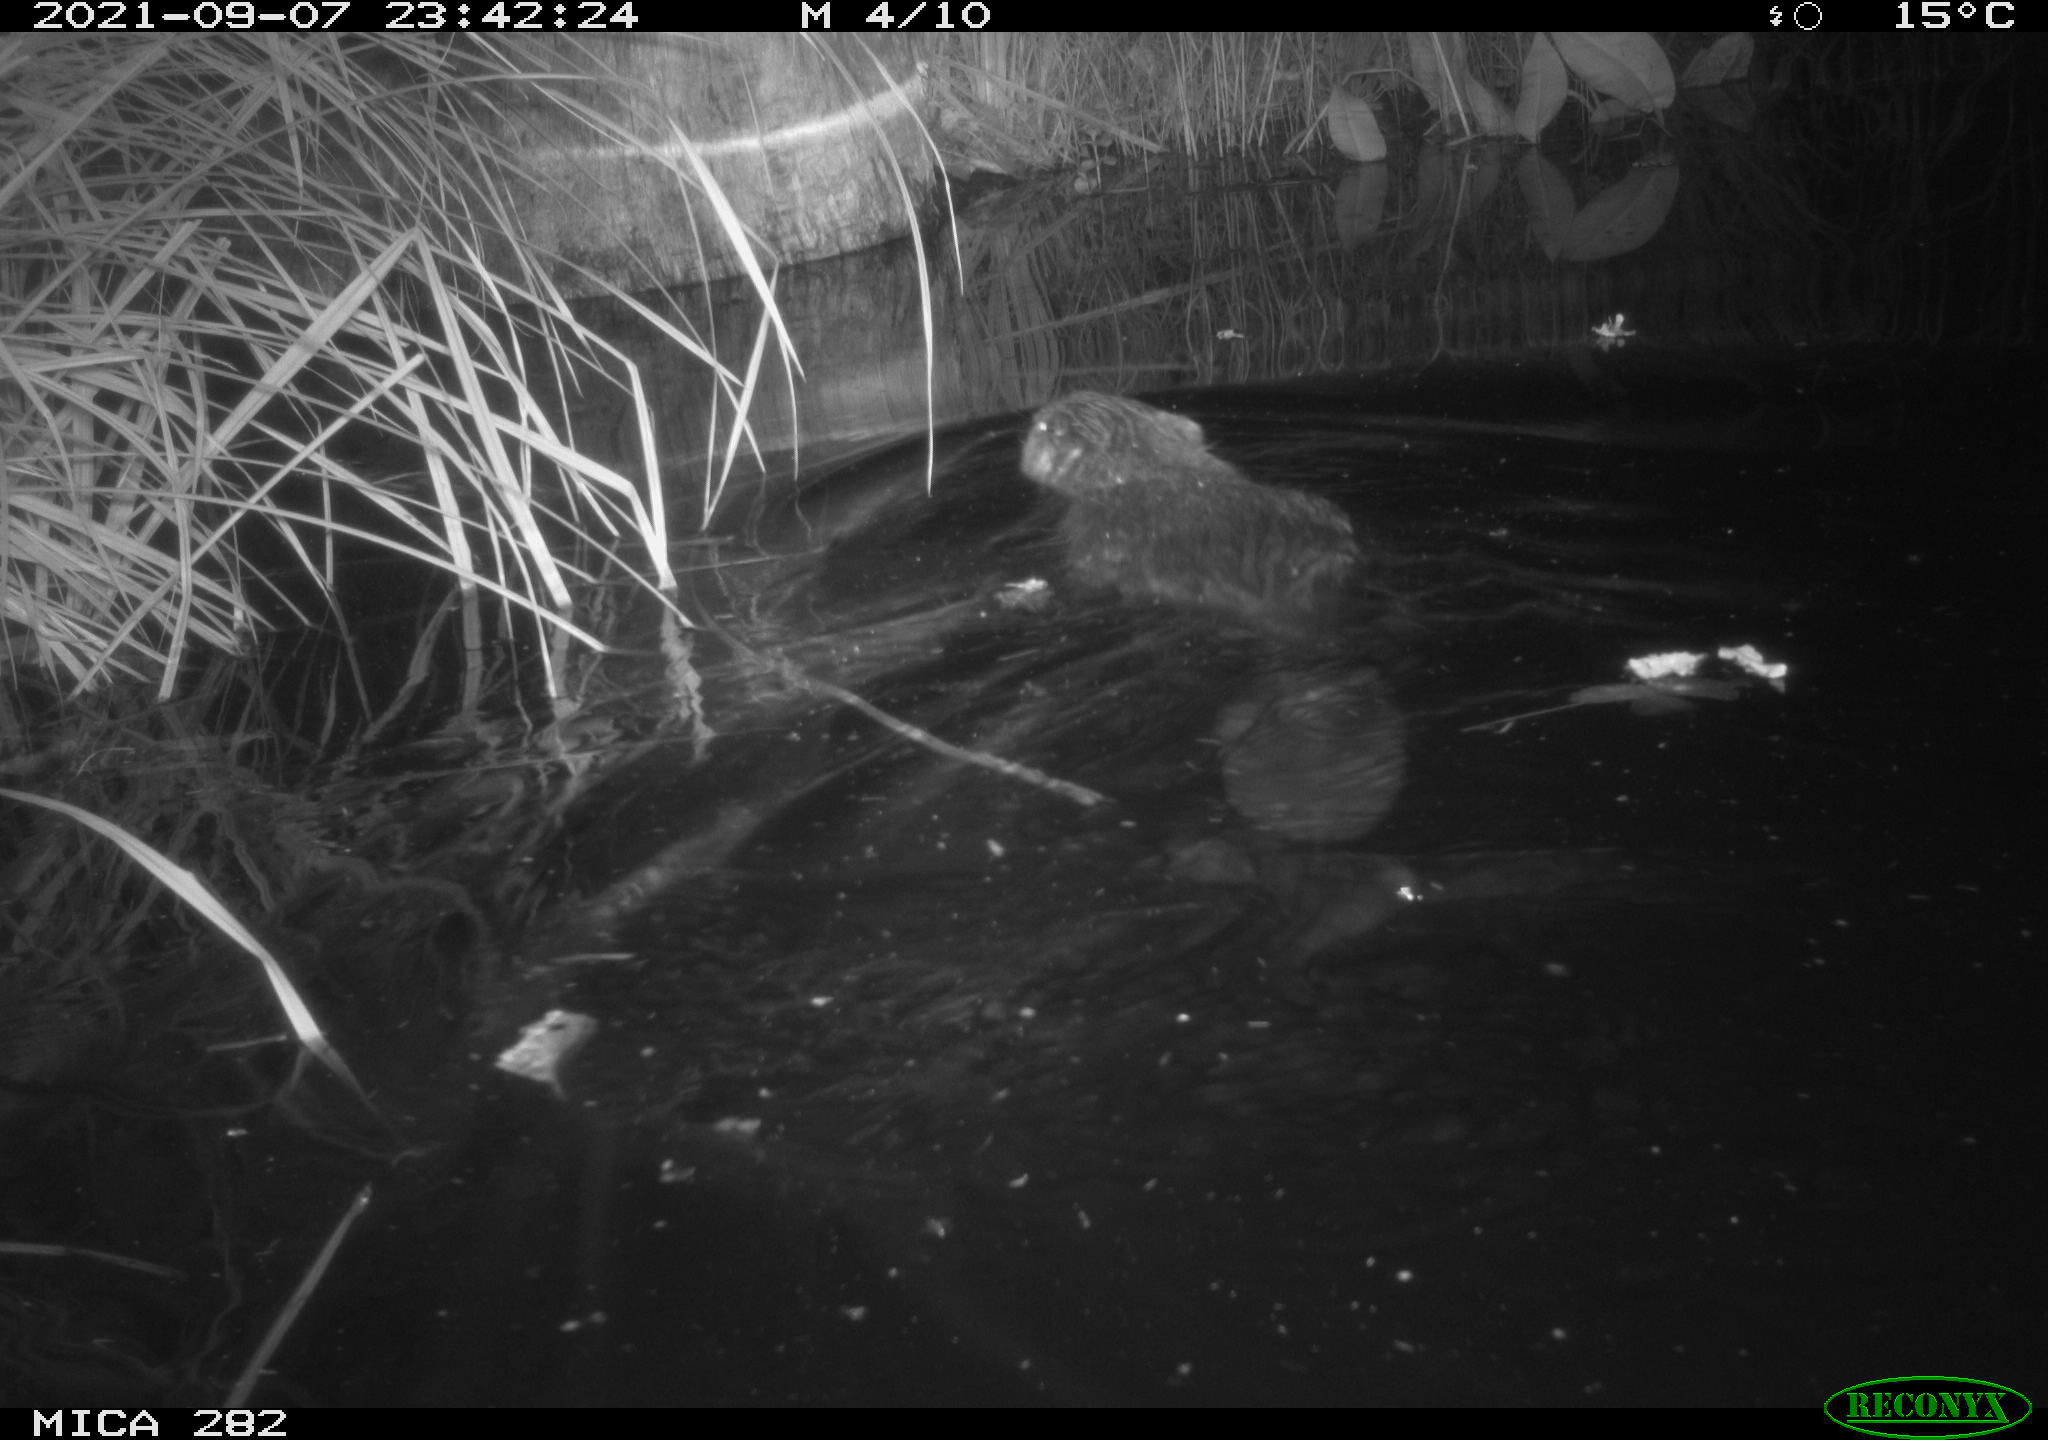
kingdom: Animalia
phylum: Chordata
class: Mammalia
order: Rodentia
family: Castoridae
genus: Castor
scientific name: Castor fiber
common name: Eurasian beaver
